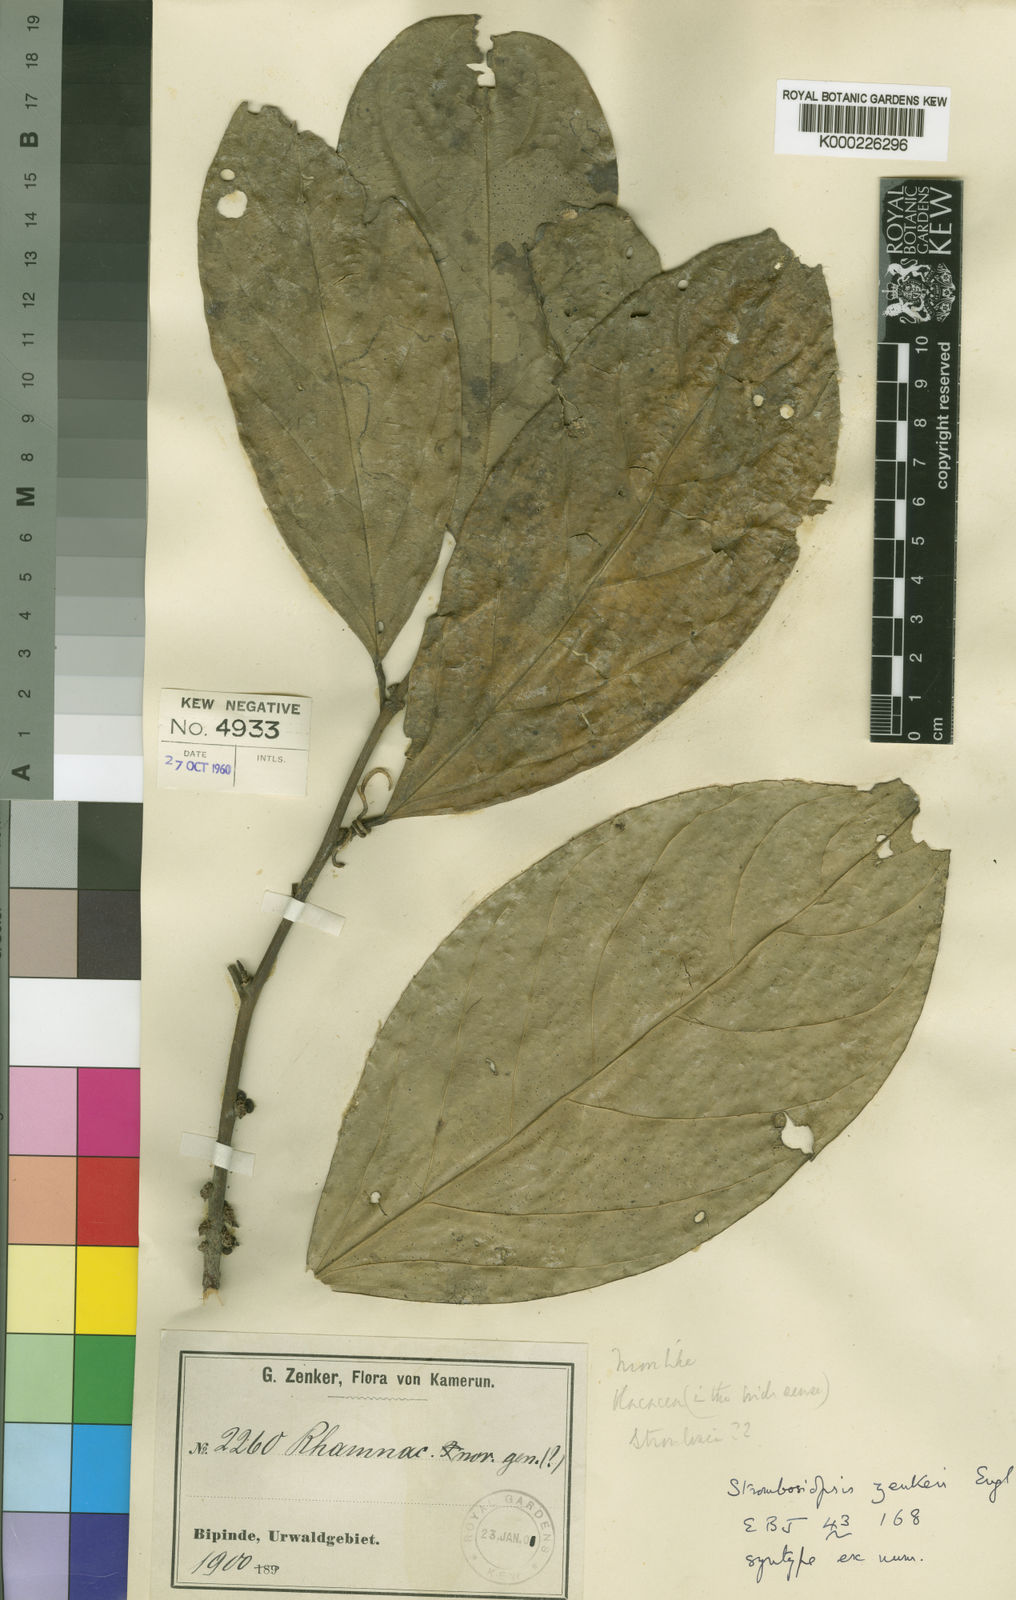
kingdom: Plantae
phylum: Tracheophyta
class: Magnoliopsida
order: Santalales
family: Strombosiaceae
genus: Diogoa
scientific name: Diogoa
